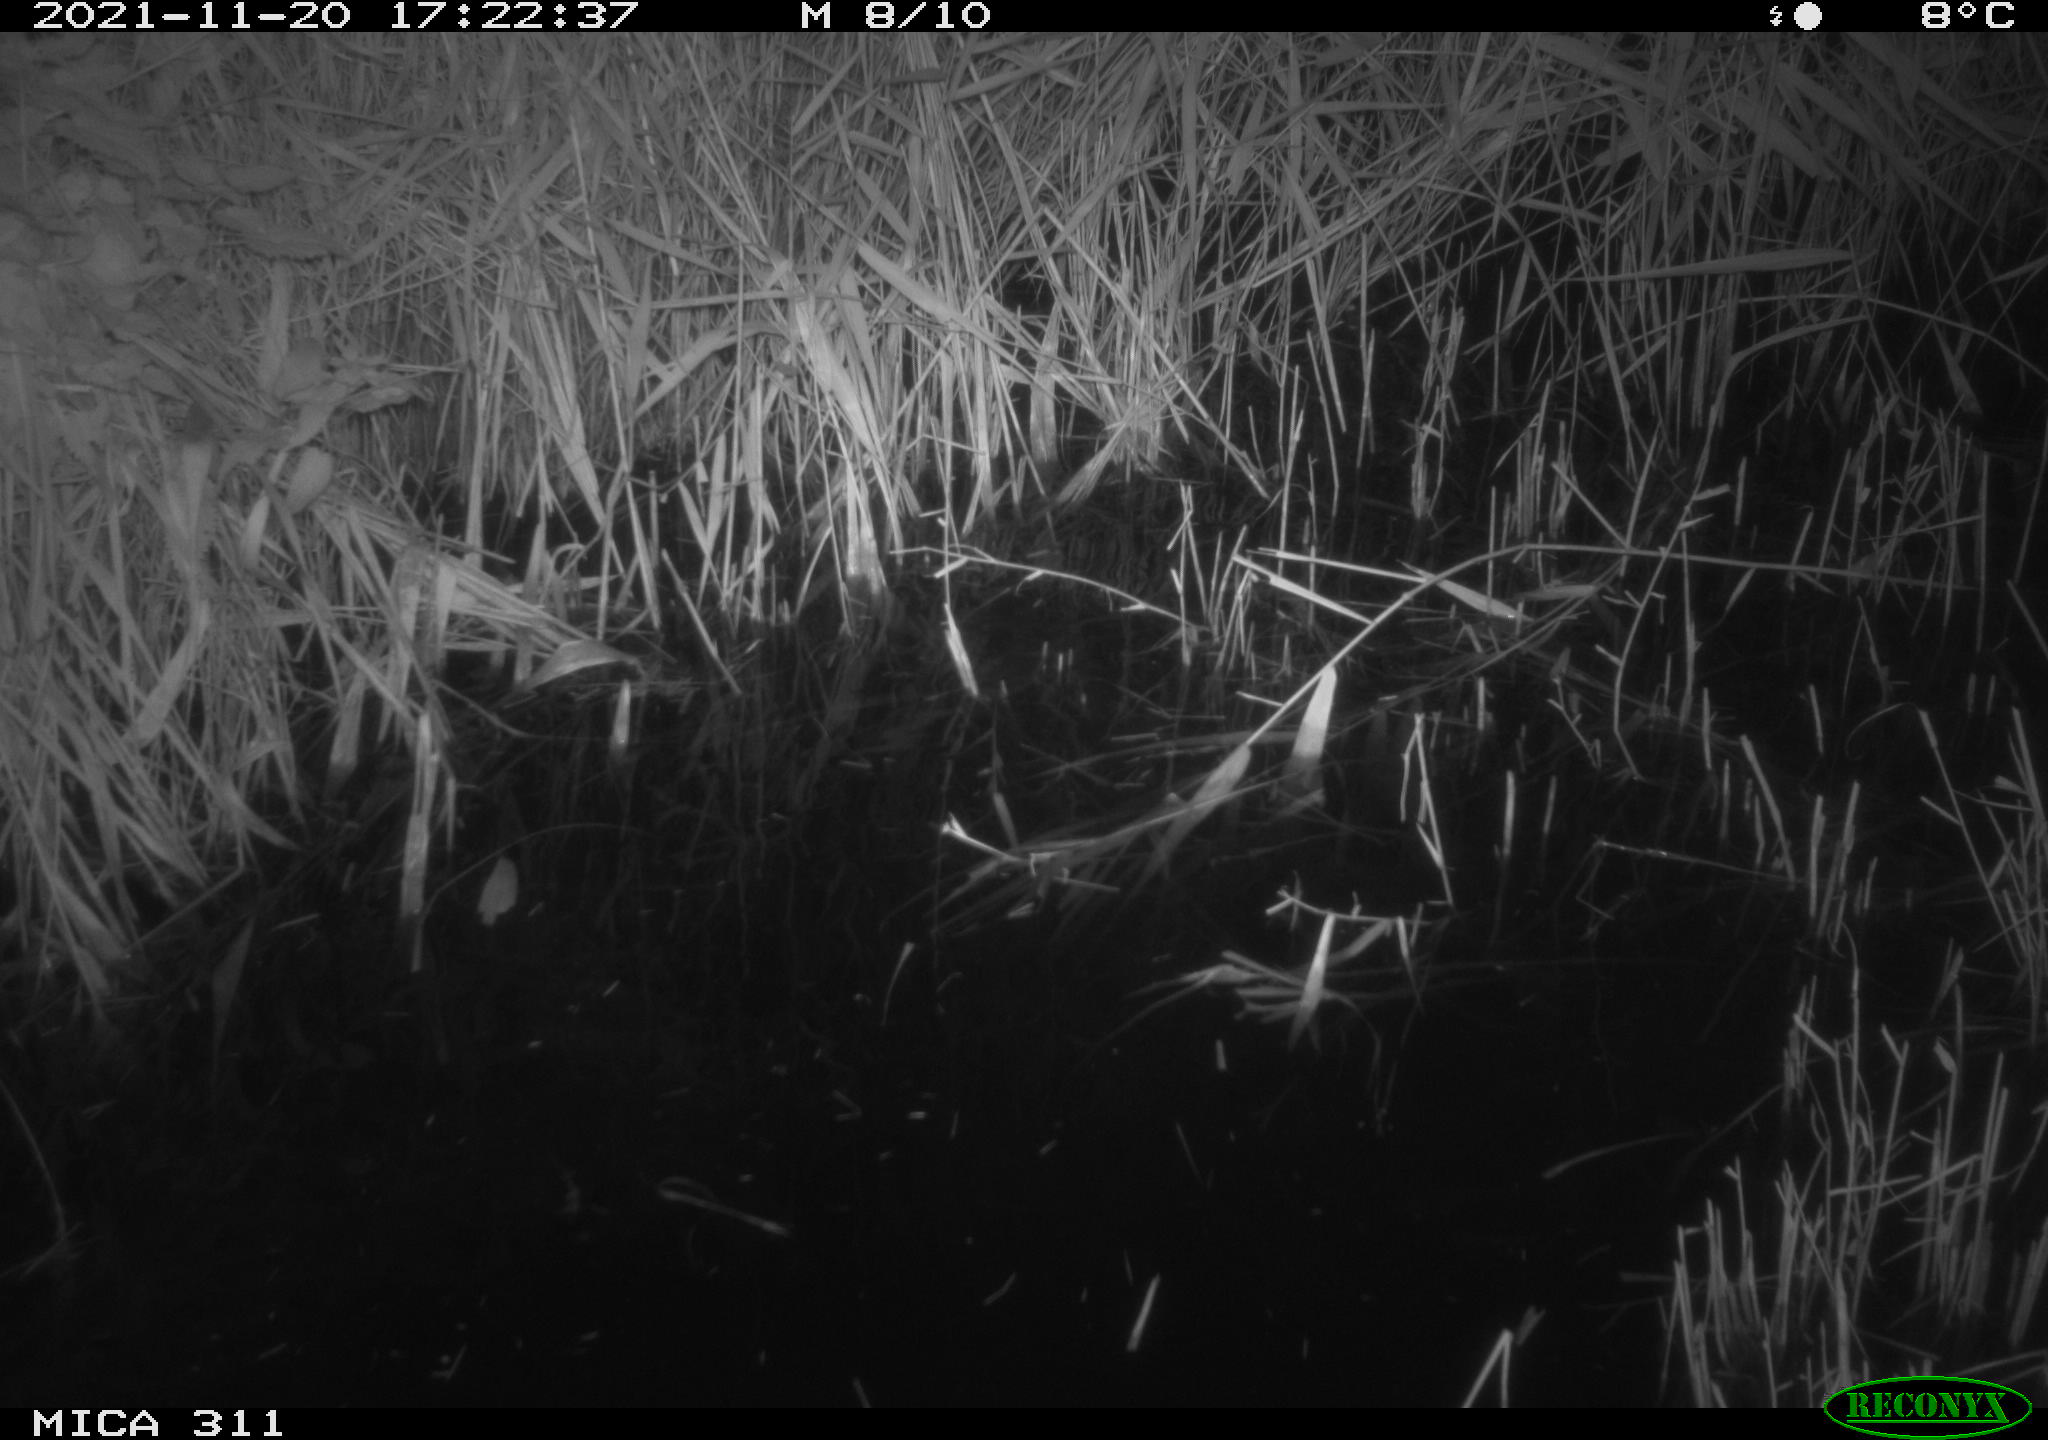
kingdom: Animalia
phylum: Chordata
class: Mammalia
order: Rodentia
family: Muridae
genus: Rattus
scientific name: Rattus norvegicus
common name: Brown rat
